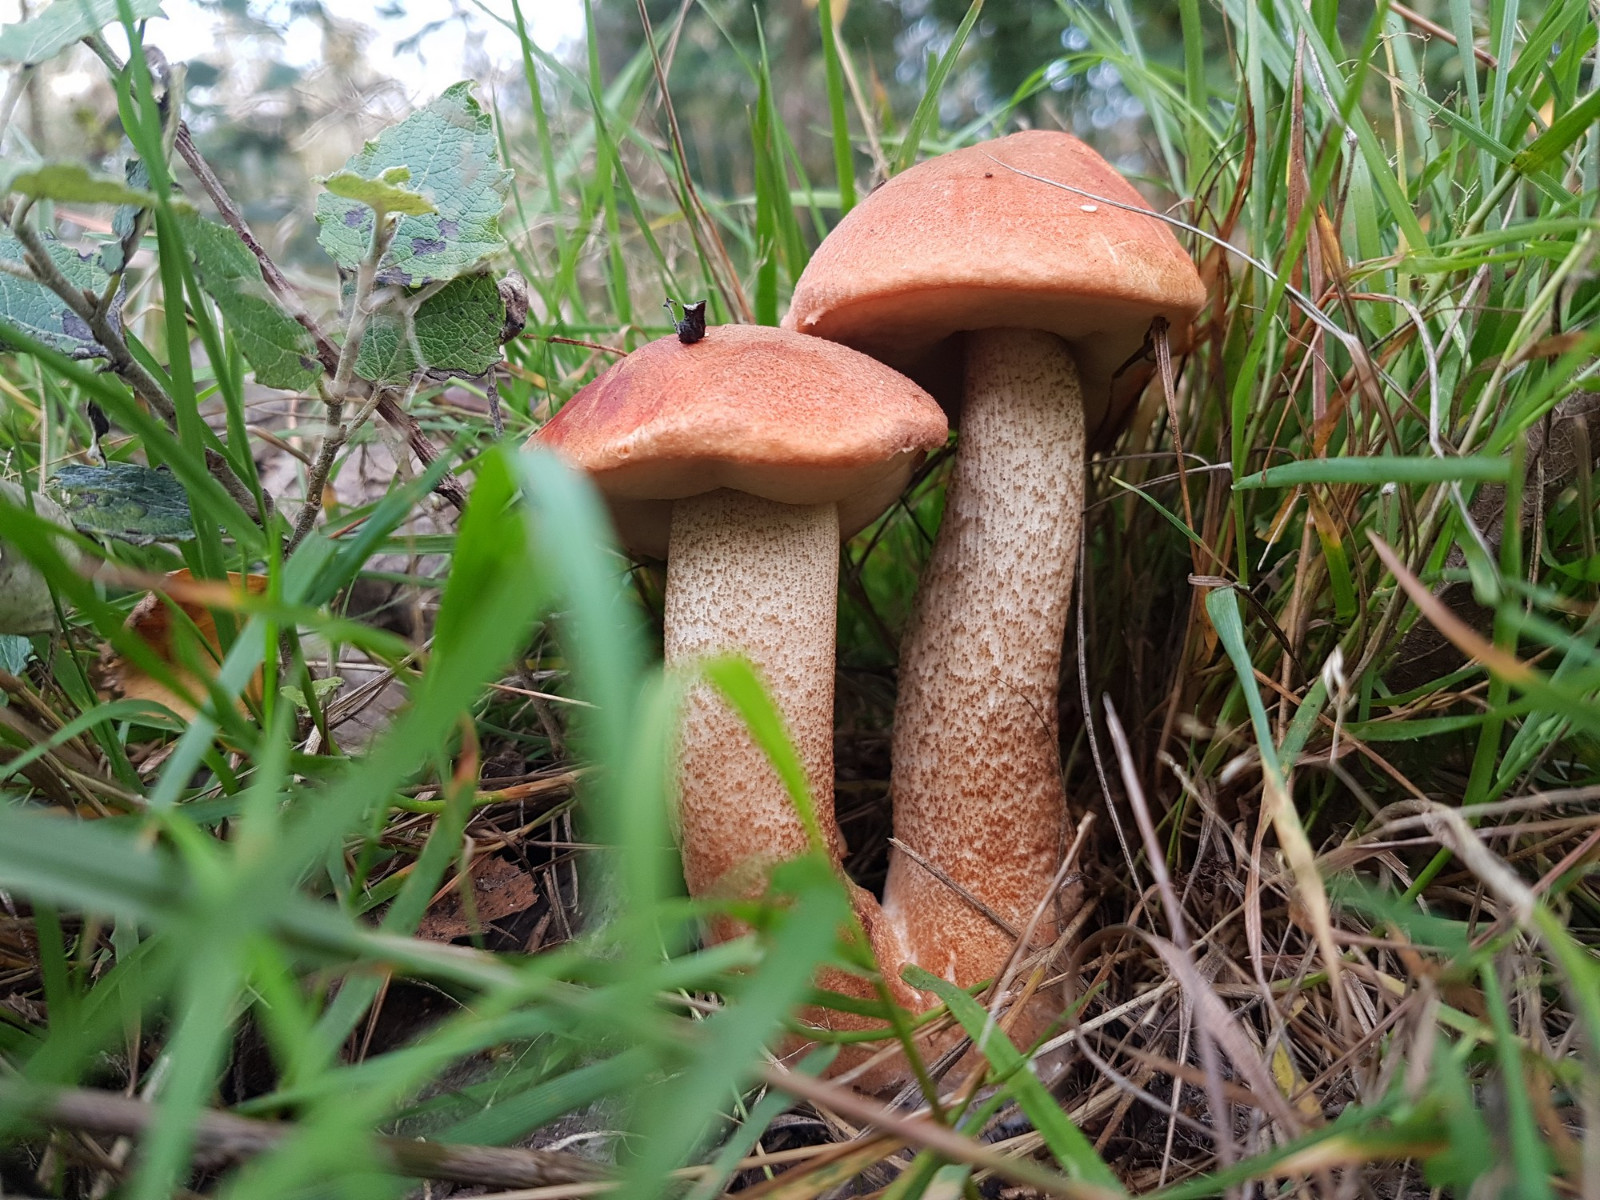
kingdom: Fungi
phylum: Basidiomycota
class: Agaricomycetes
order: Boletales
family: Boletaceae
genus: Leccinum
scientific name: Leccinum aurantiacum
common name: rustrød skælrørhat
